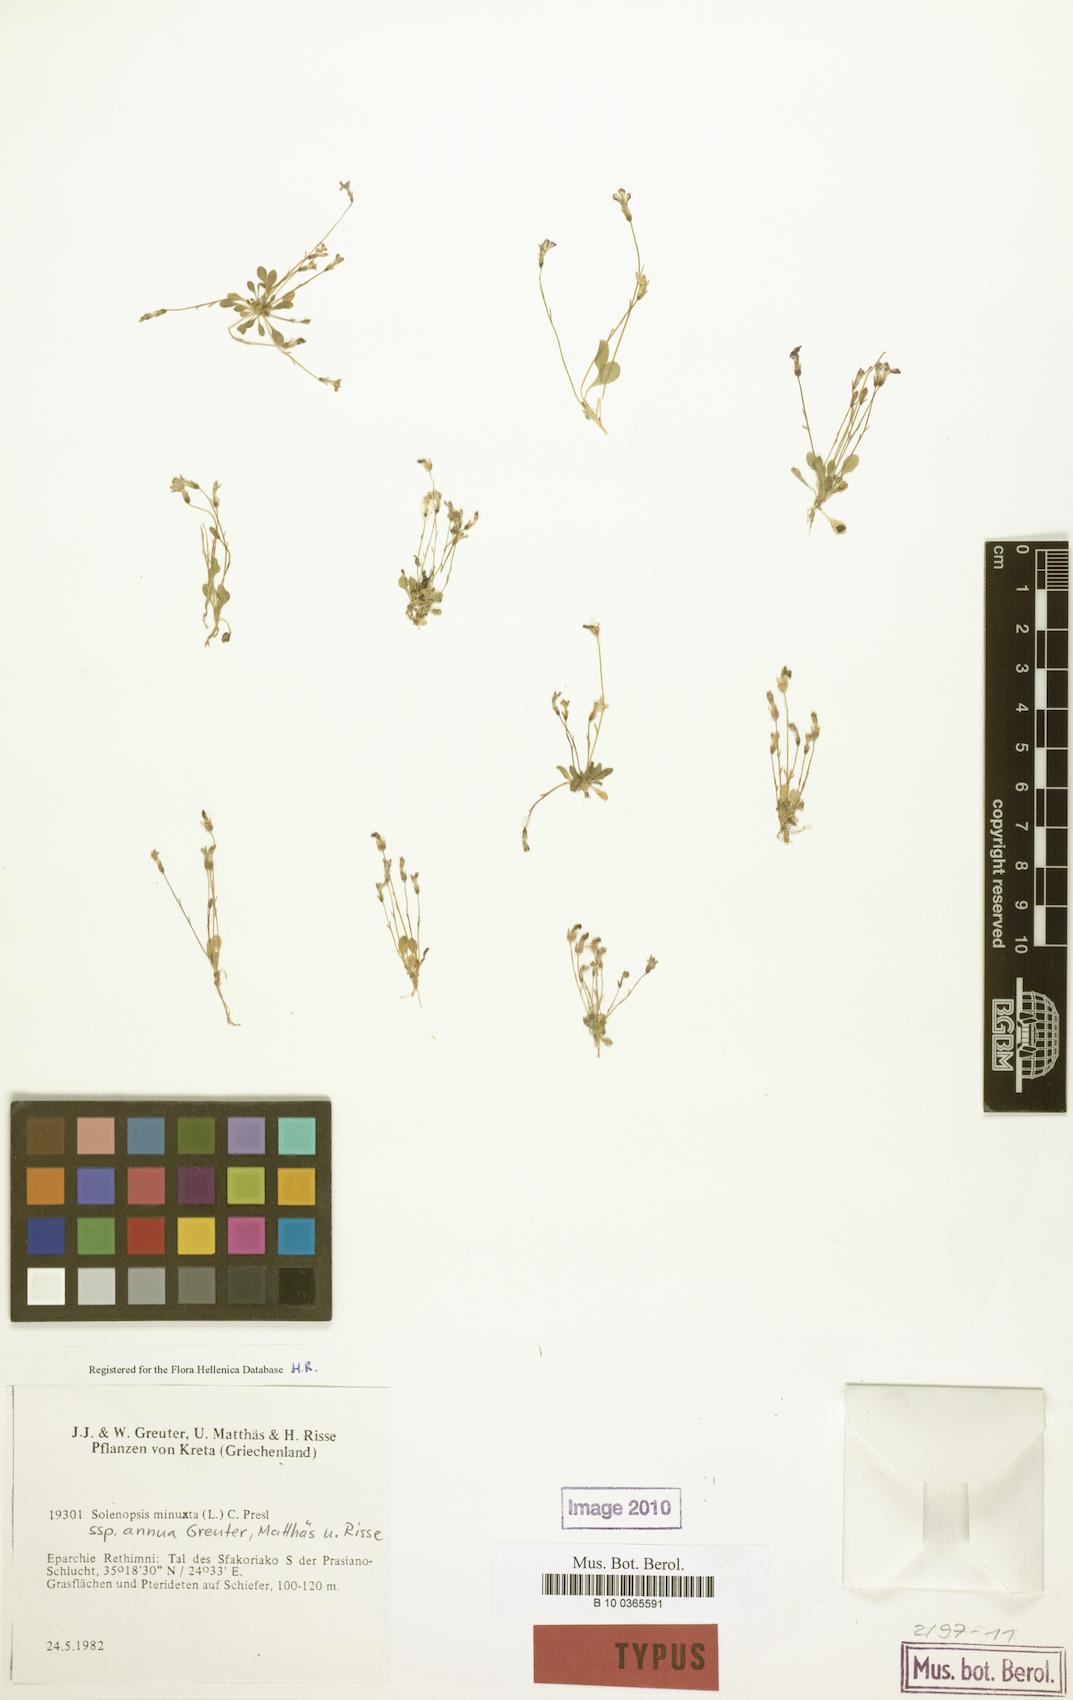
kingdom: Plantae
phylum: Tracheophyta
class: Magnoliopsida
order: Asterales
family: Campanulaceae
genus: Solenopsis
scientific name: Solenopsis annua
